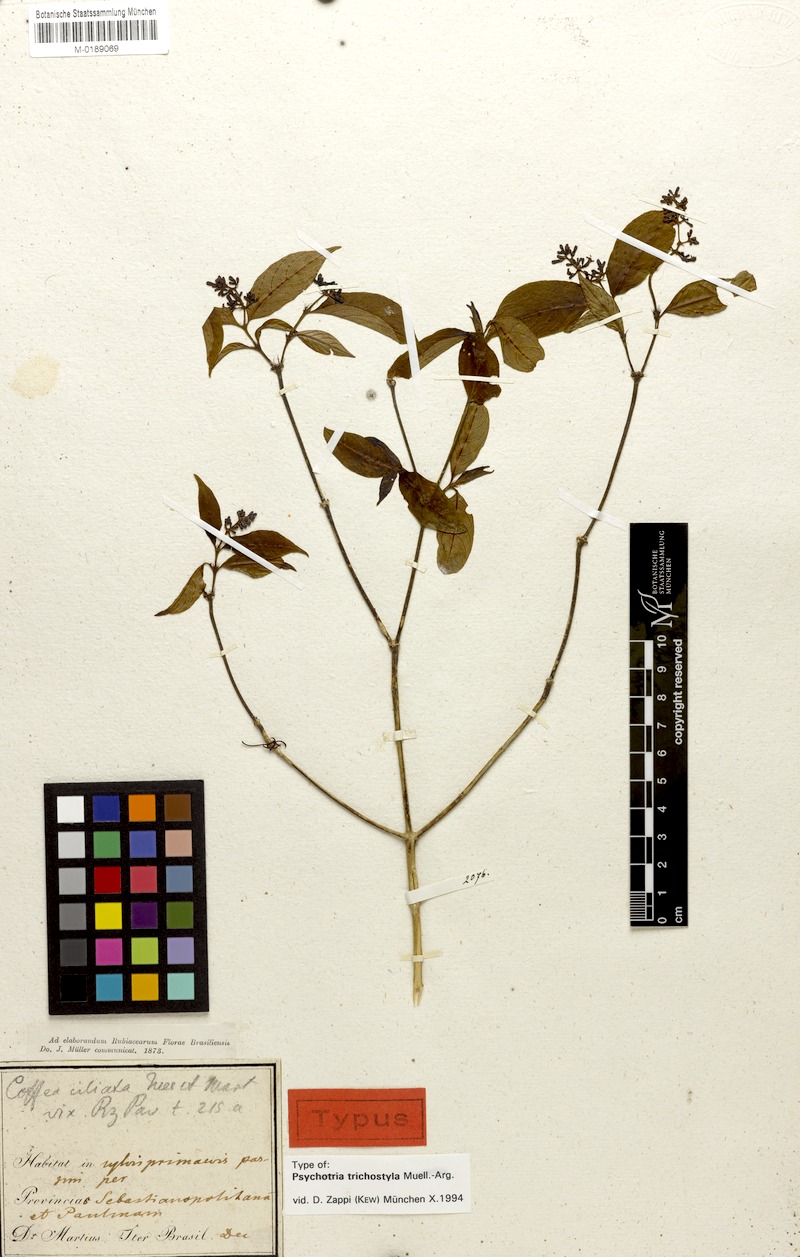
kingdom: Plantae
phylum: Tracheophyta
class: Magnoliopsida
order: Gentianales
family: Rubiaceae
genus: Palicourea
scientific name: Palicourea fissistipula
